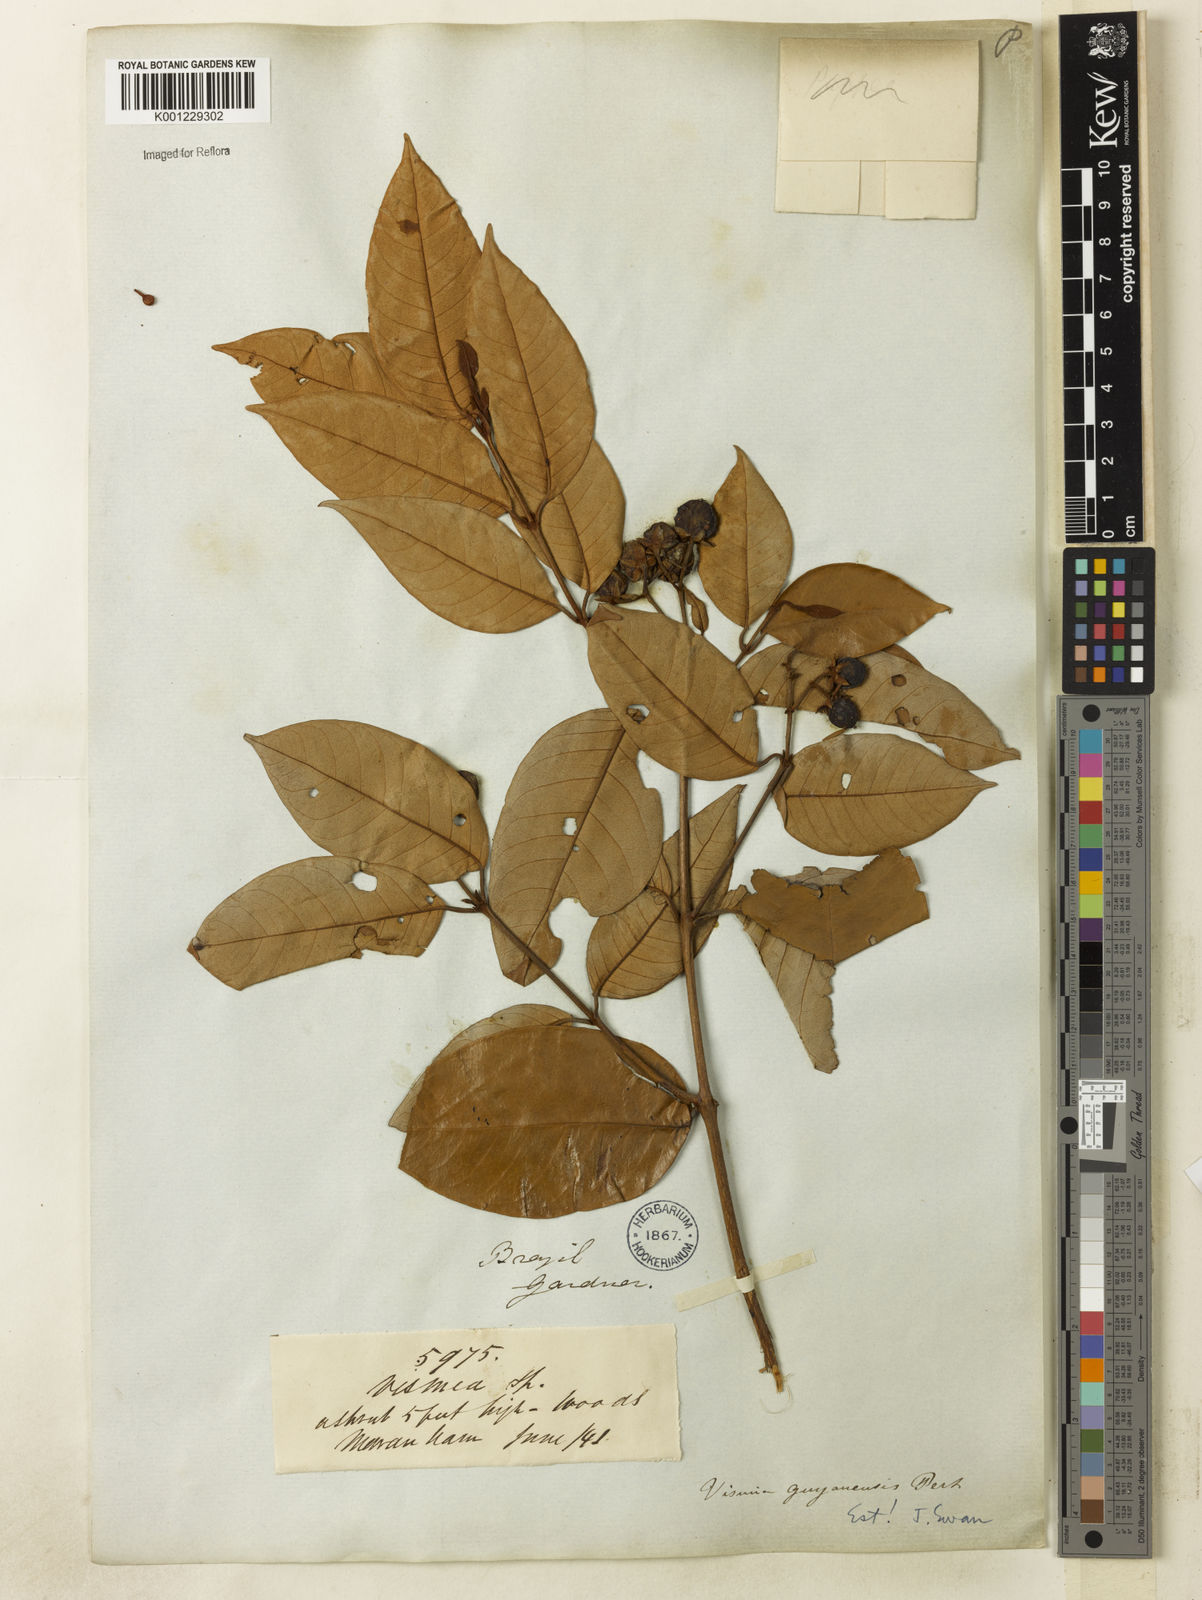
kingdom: Plantae
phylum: Tracheophyta
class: Magnoliopsida
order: Malpighiales
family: Hypericaceae
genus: Vismia
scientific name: Vismia
